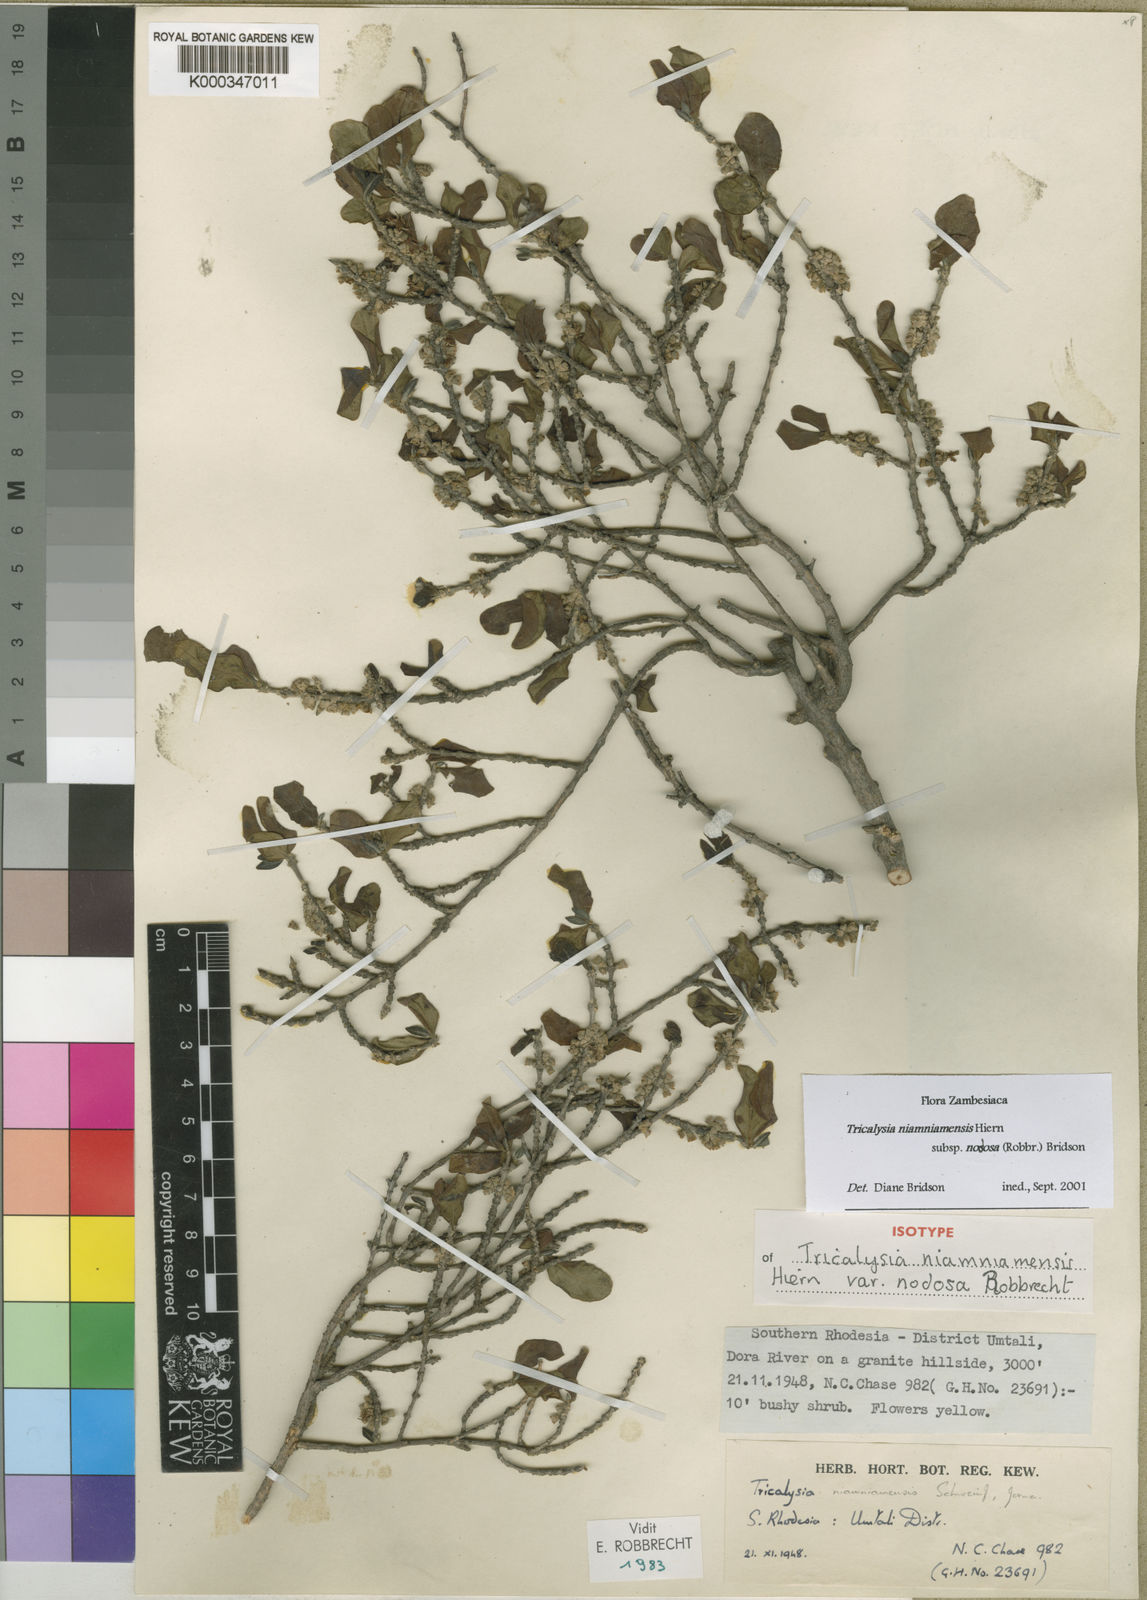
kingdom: Plantae
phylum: Tracheophyta
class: Magnoliopsida
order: Gentianales
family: Rubiaceae
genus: Tricalysia
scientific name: Tricalysia niamniamensis
